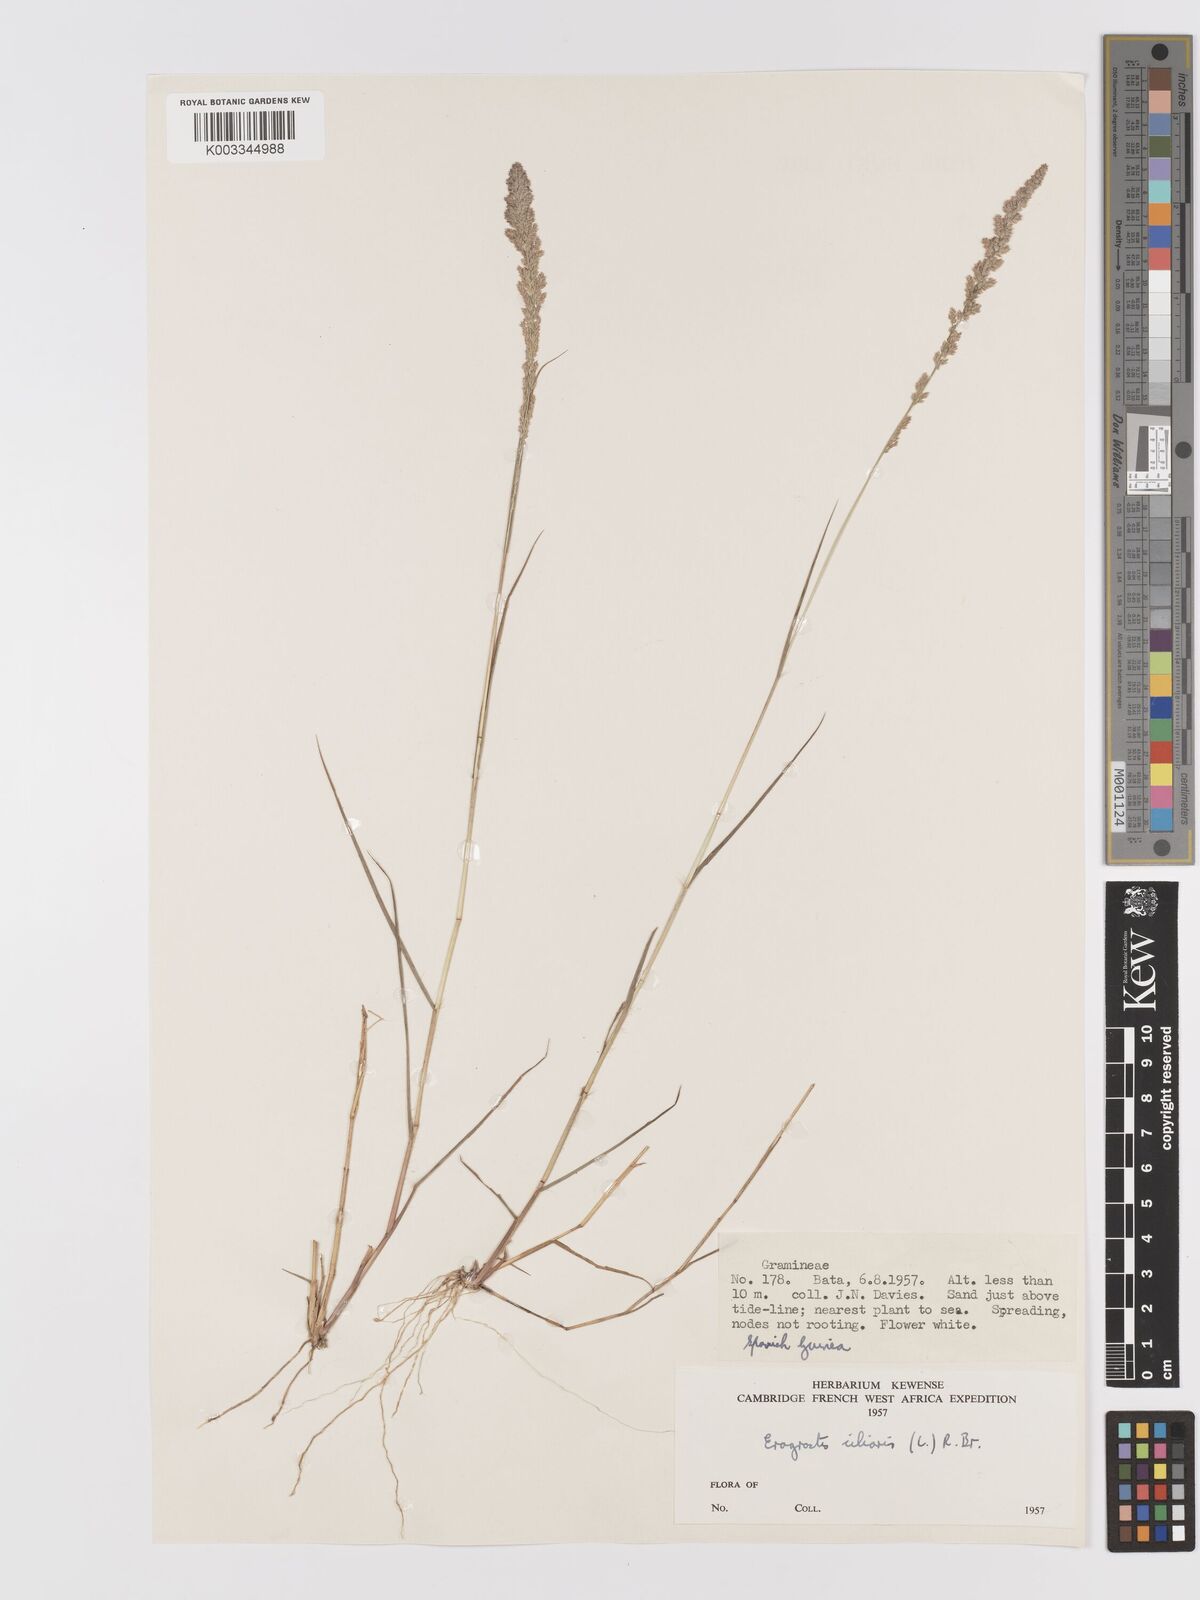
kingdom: Plantae
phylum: Tracheophyta
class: Liliopsida
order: Poales
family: Poaceae
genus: Eragrostis
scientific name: Eragrostis ciliaris
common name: Gophertail lovegrass
